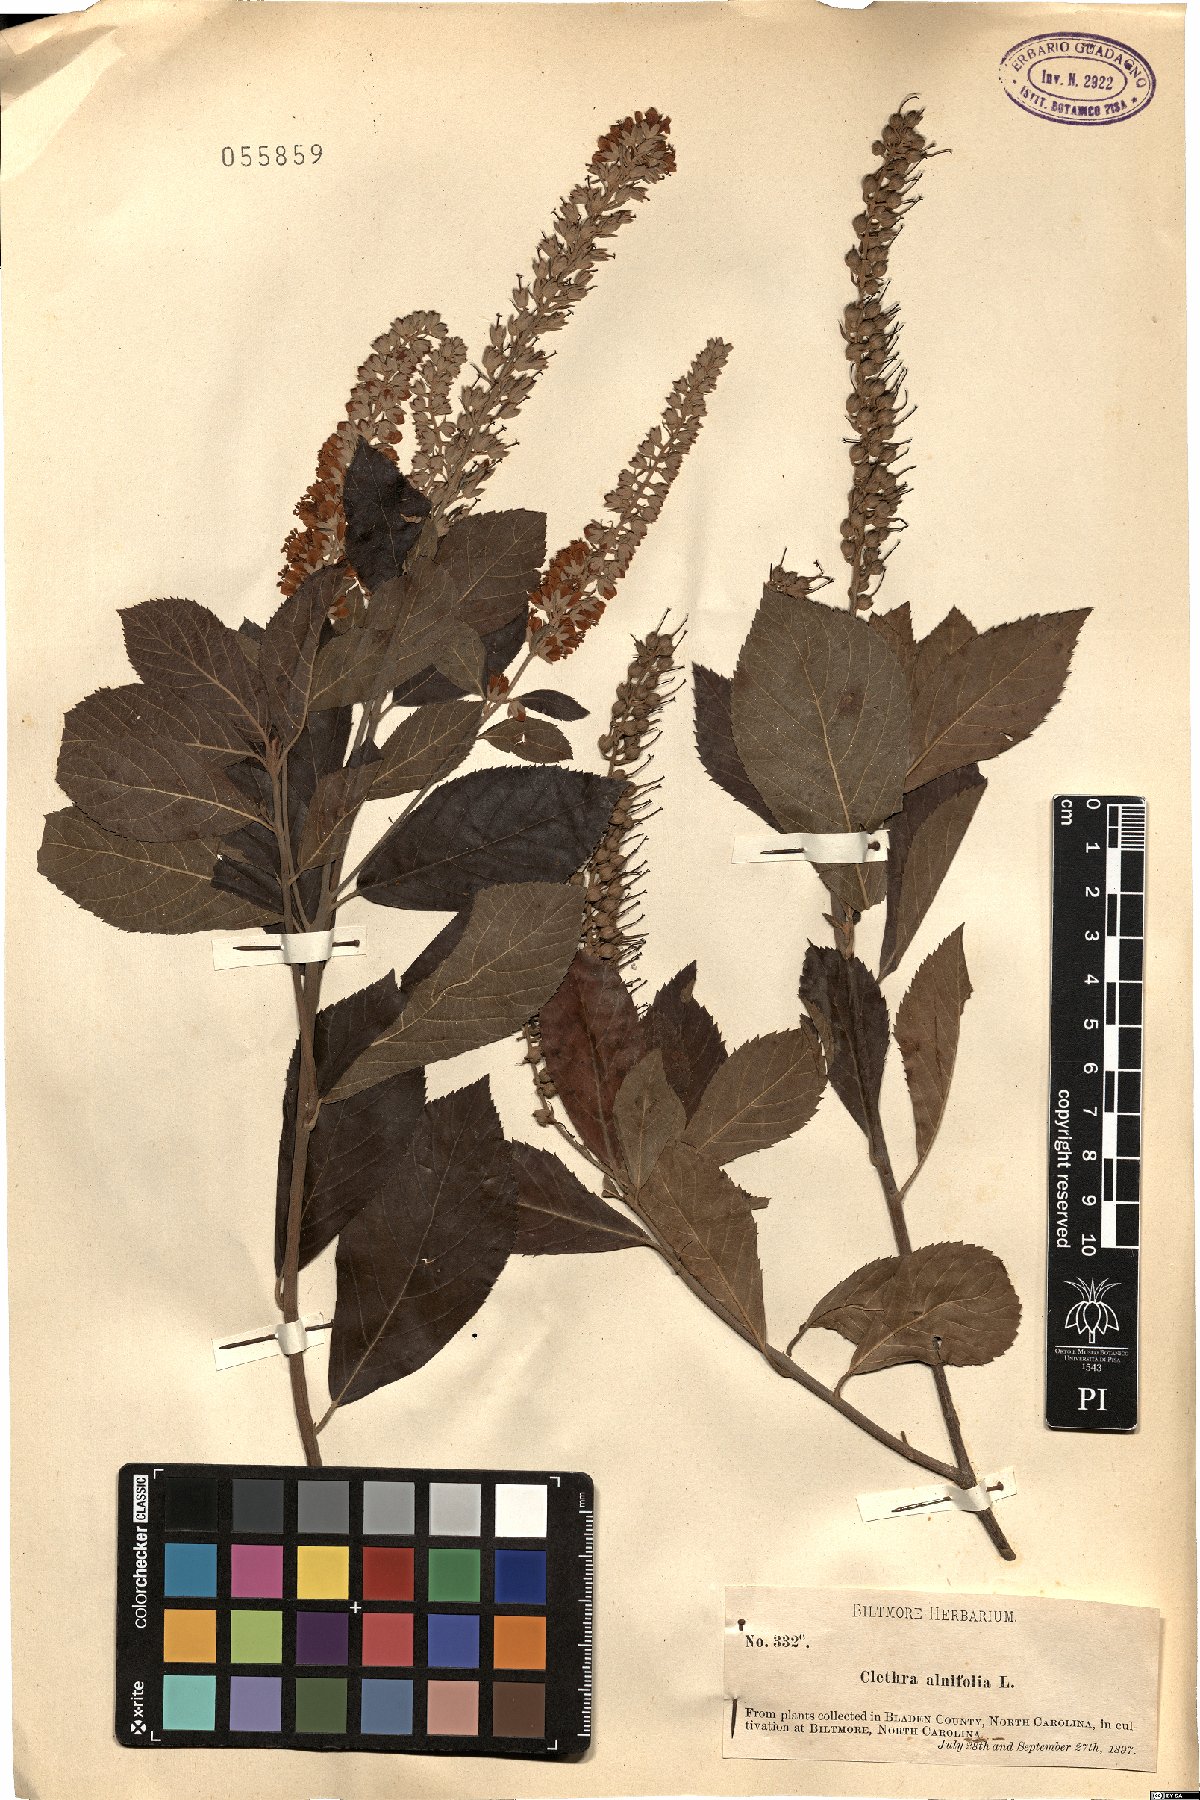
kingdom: Plantae
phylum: Tracheophyta
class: Magnoliopsida
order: Ericales
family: Clethraceae
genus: Clethra
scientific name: Clethra alnifolia
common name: Sweet pepperbush
